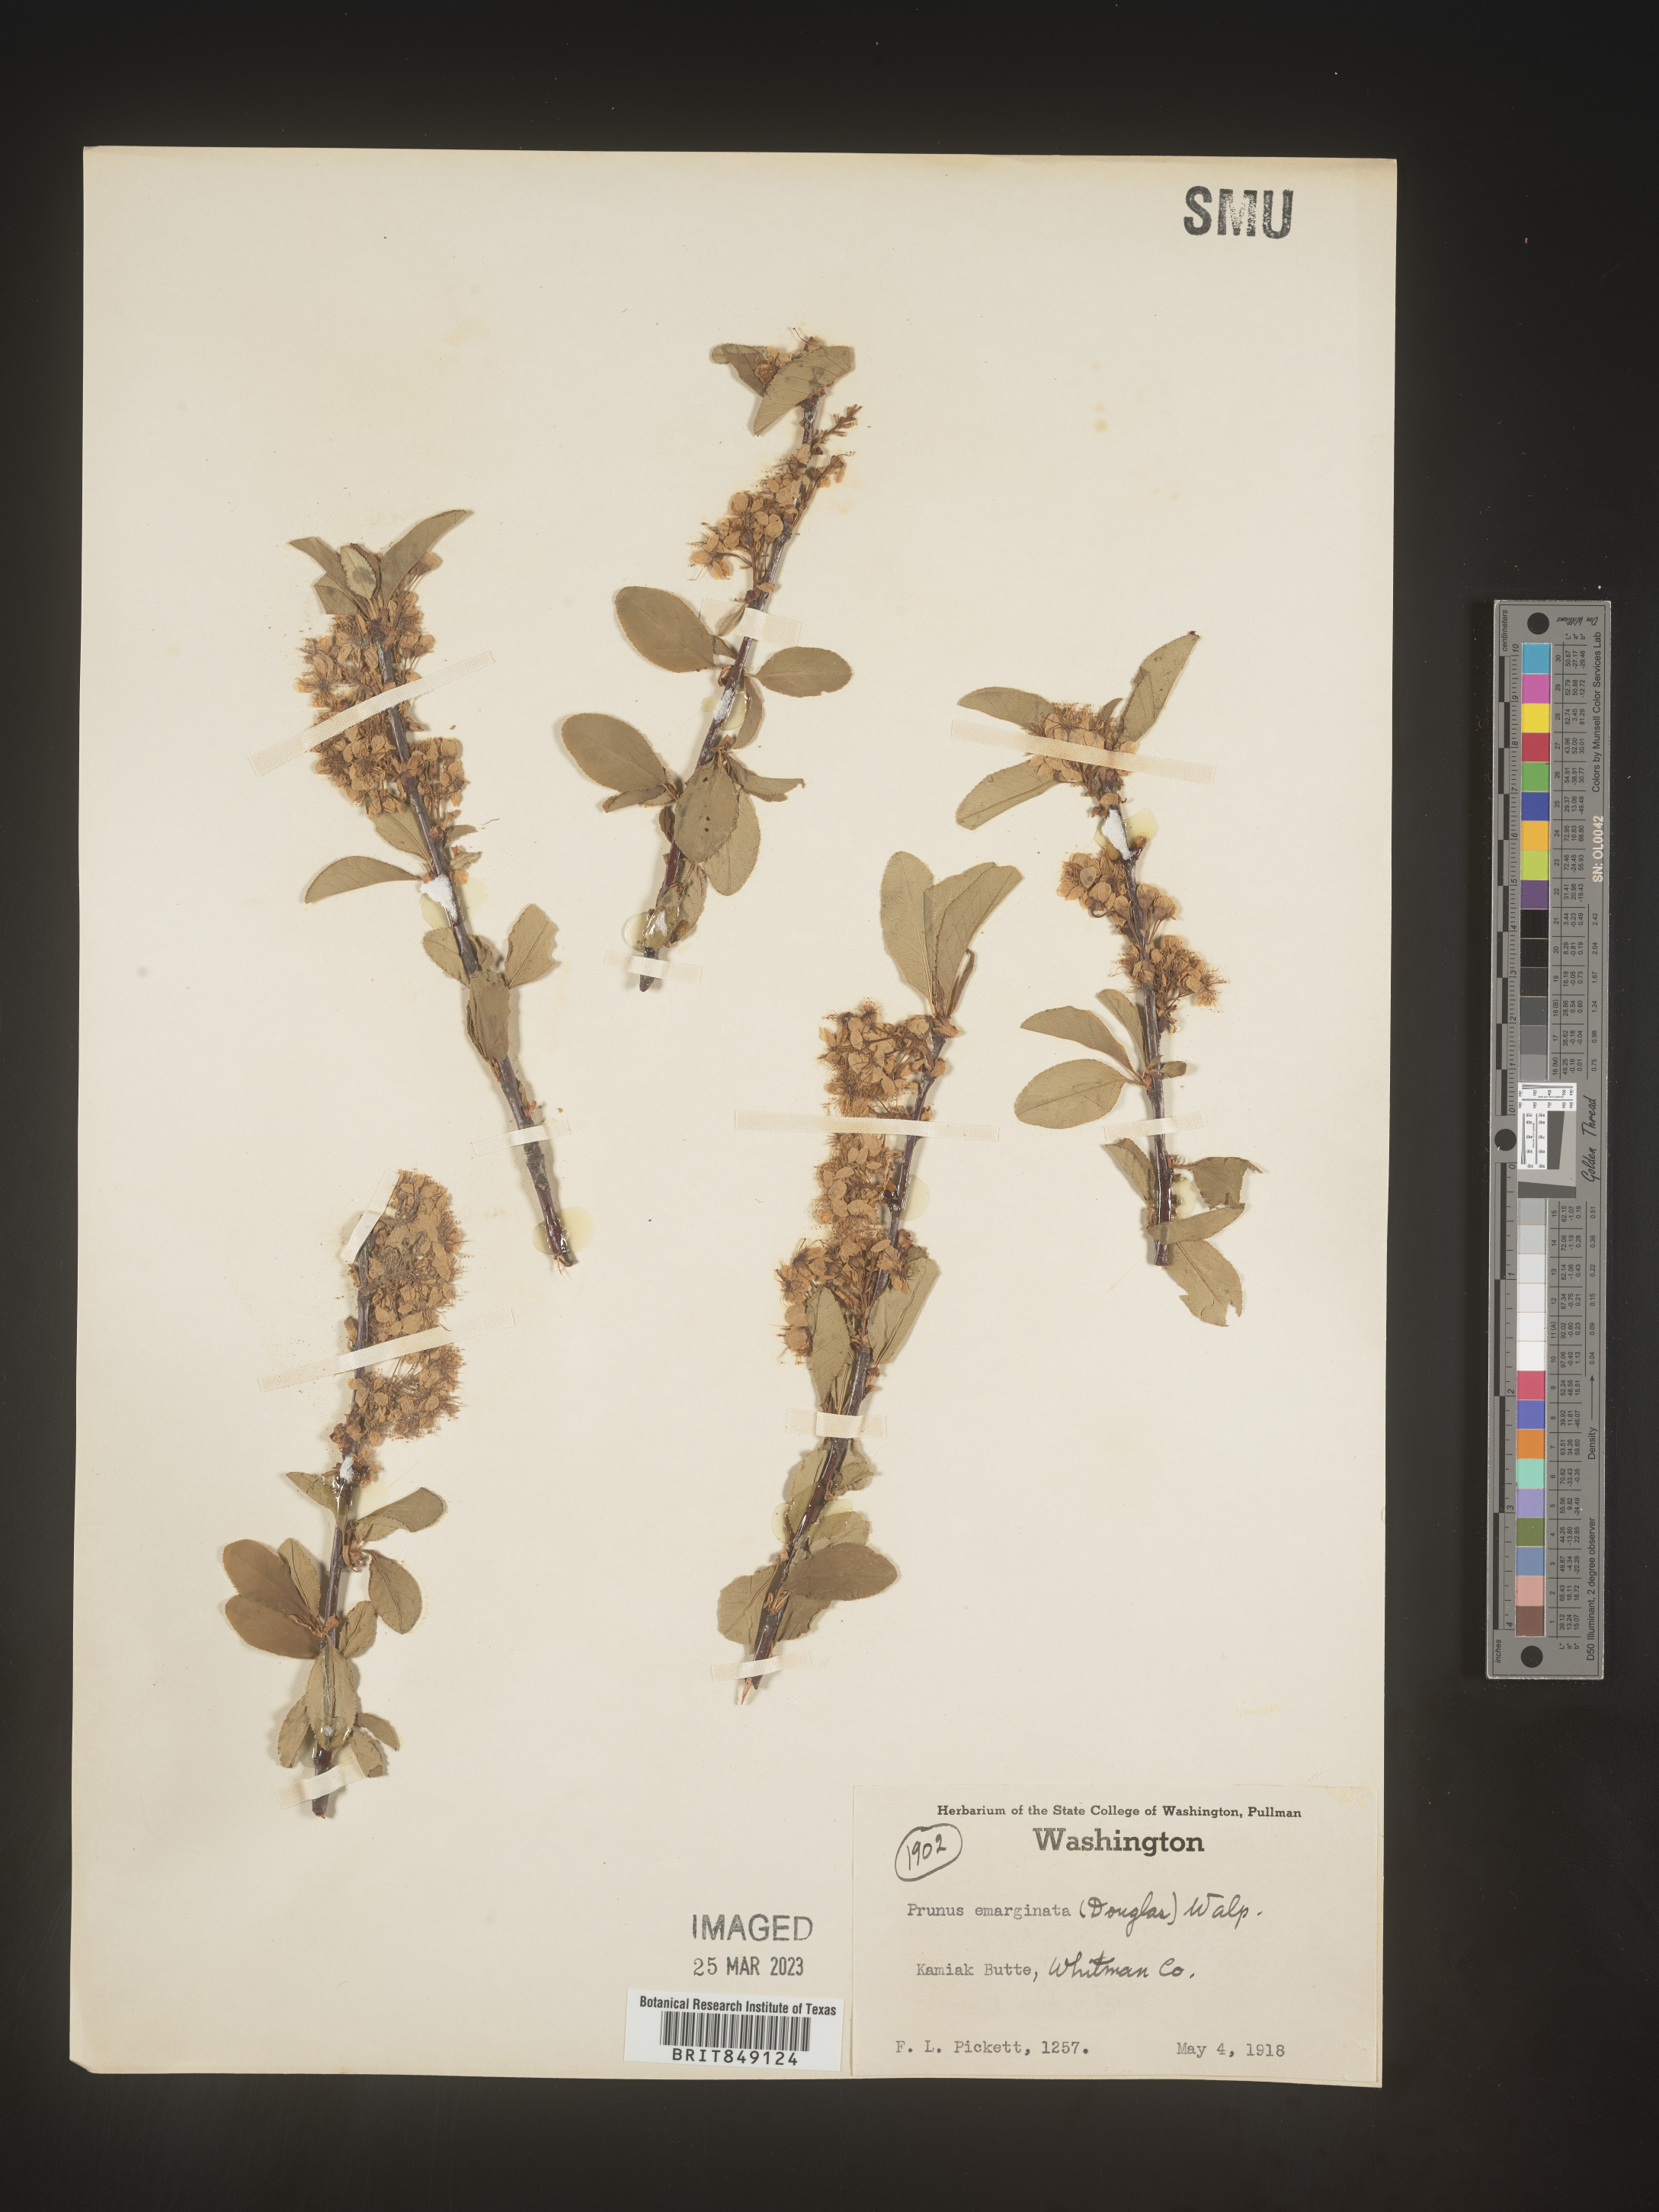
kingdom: Plantae
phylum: Tracheophyta
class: Magnoliopsida
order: Rosales
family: Rosaceae
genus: Prunus
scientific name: Prunus emarginata
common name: Bitter cherry
